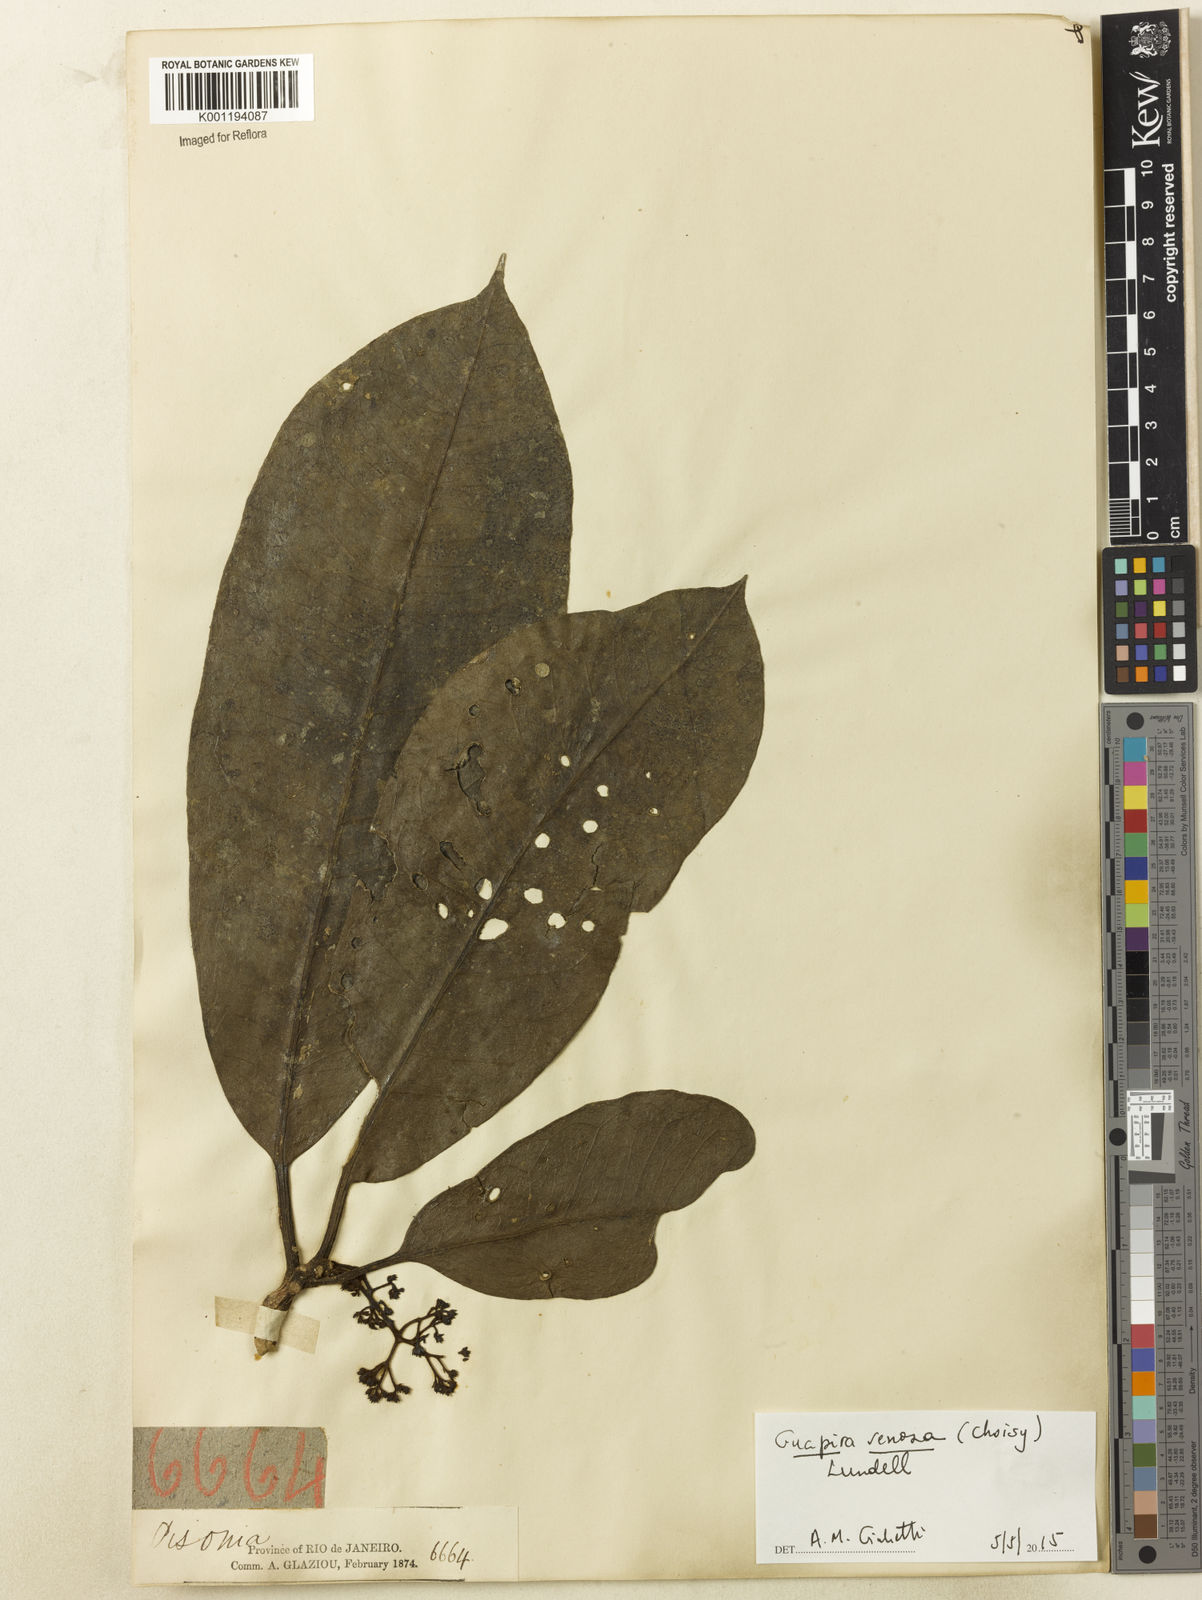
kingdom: Plantae
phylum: Tracheophyta
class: Magnoliopsida
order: Caryophyllales
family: Nyctaginaceae
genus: Guapira
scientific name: Guapira venosa
